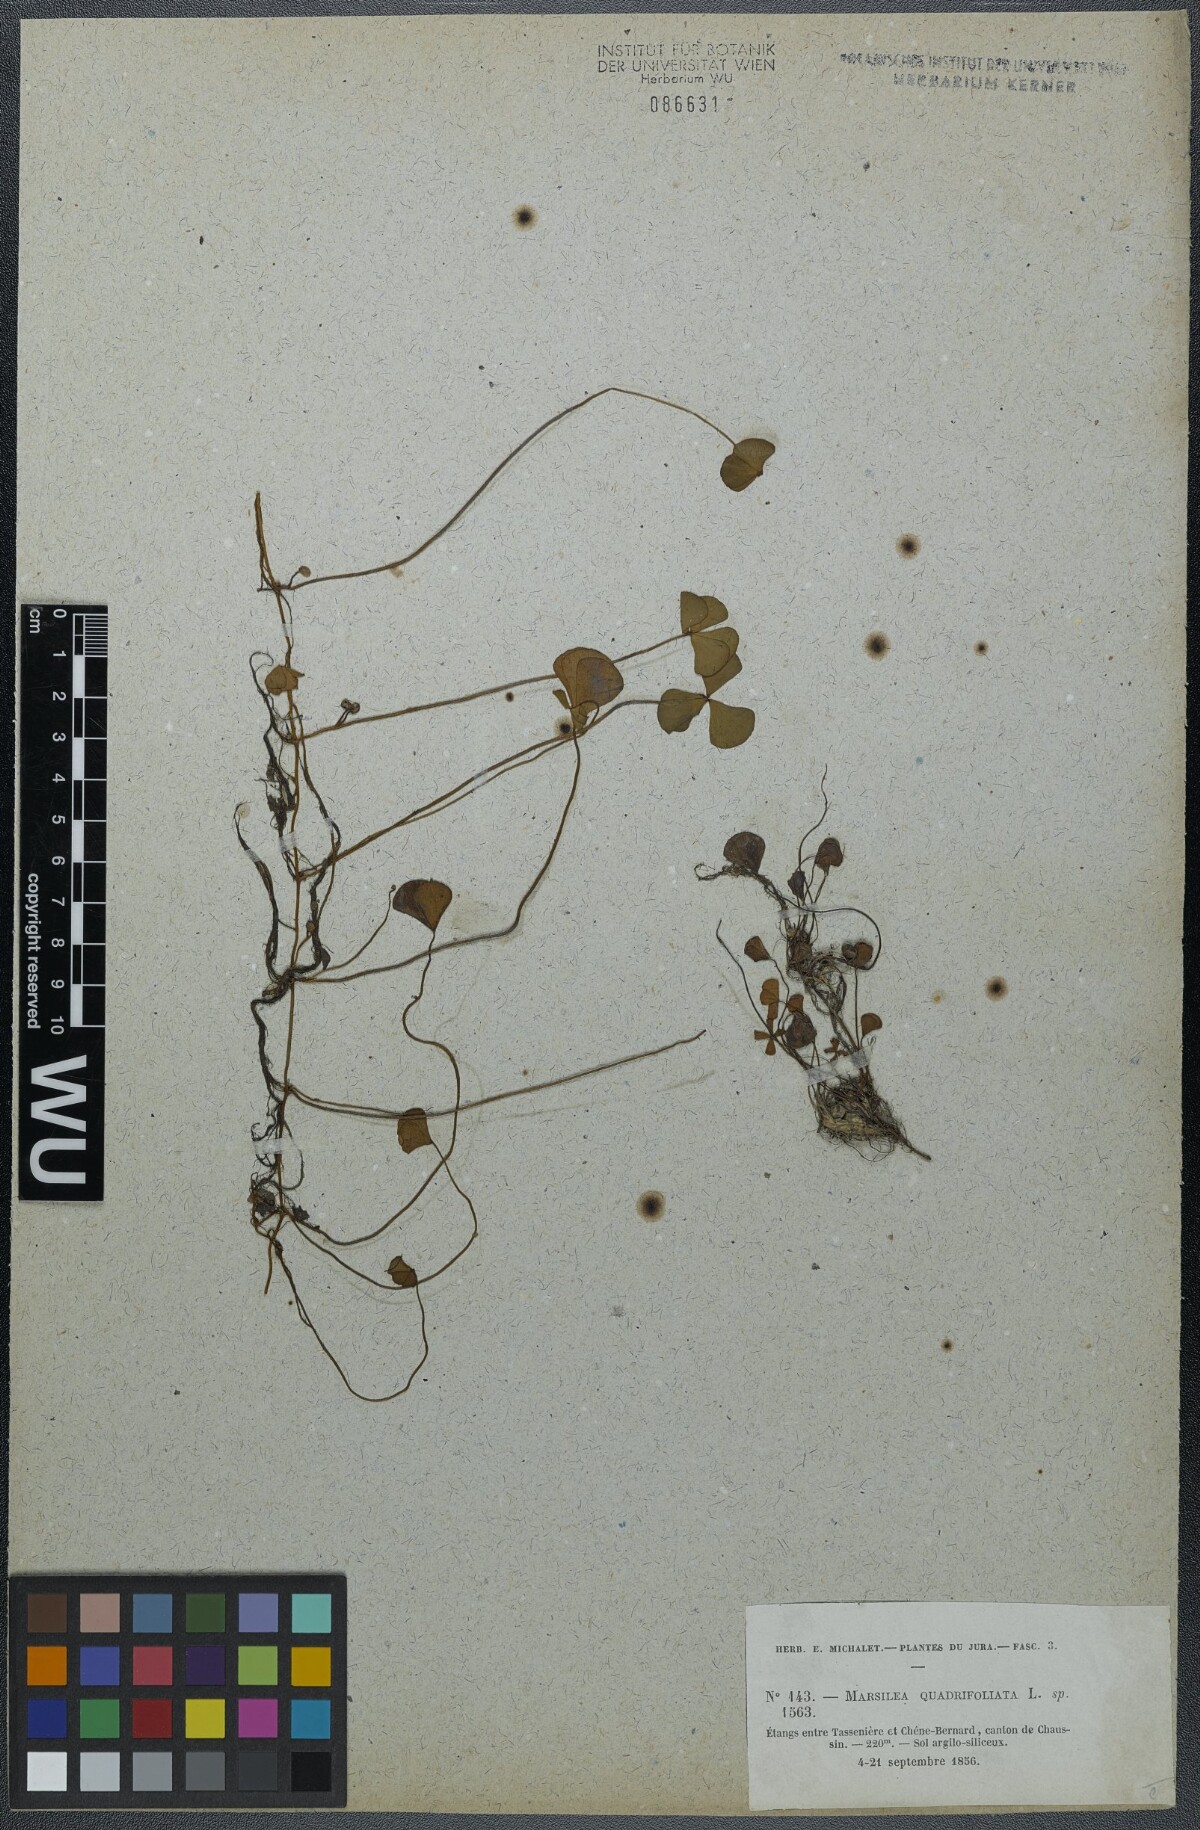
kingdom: Plantae
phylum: Tracheophyta
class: Polypodiopsida
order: Salviniales
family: Marsileaceae
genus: Marsilea
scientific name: Marsilea quadrifolia
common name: Water shamrock
